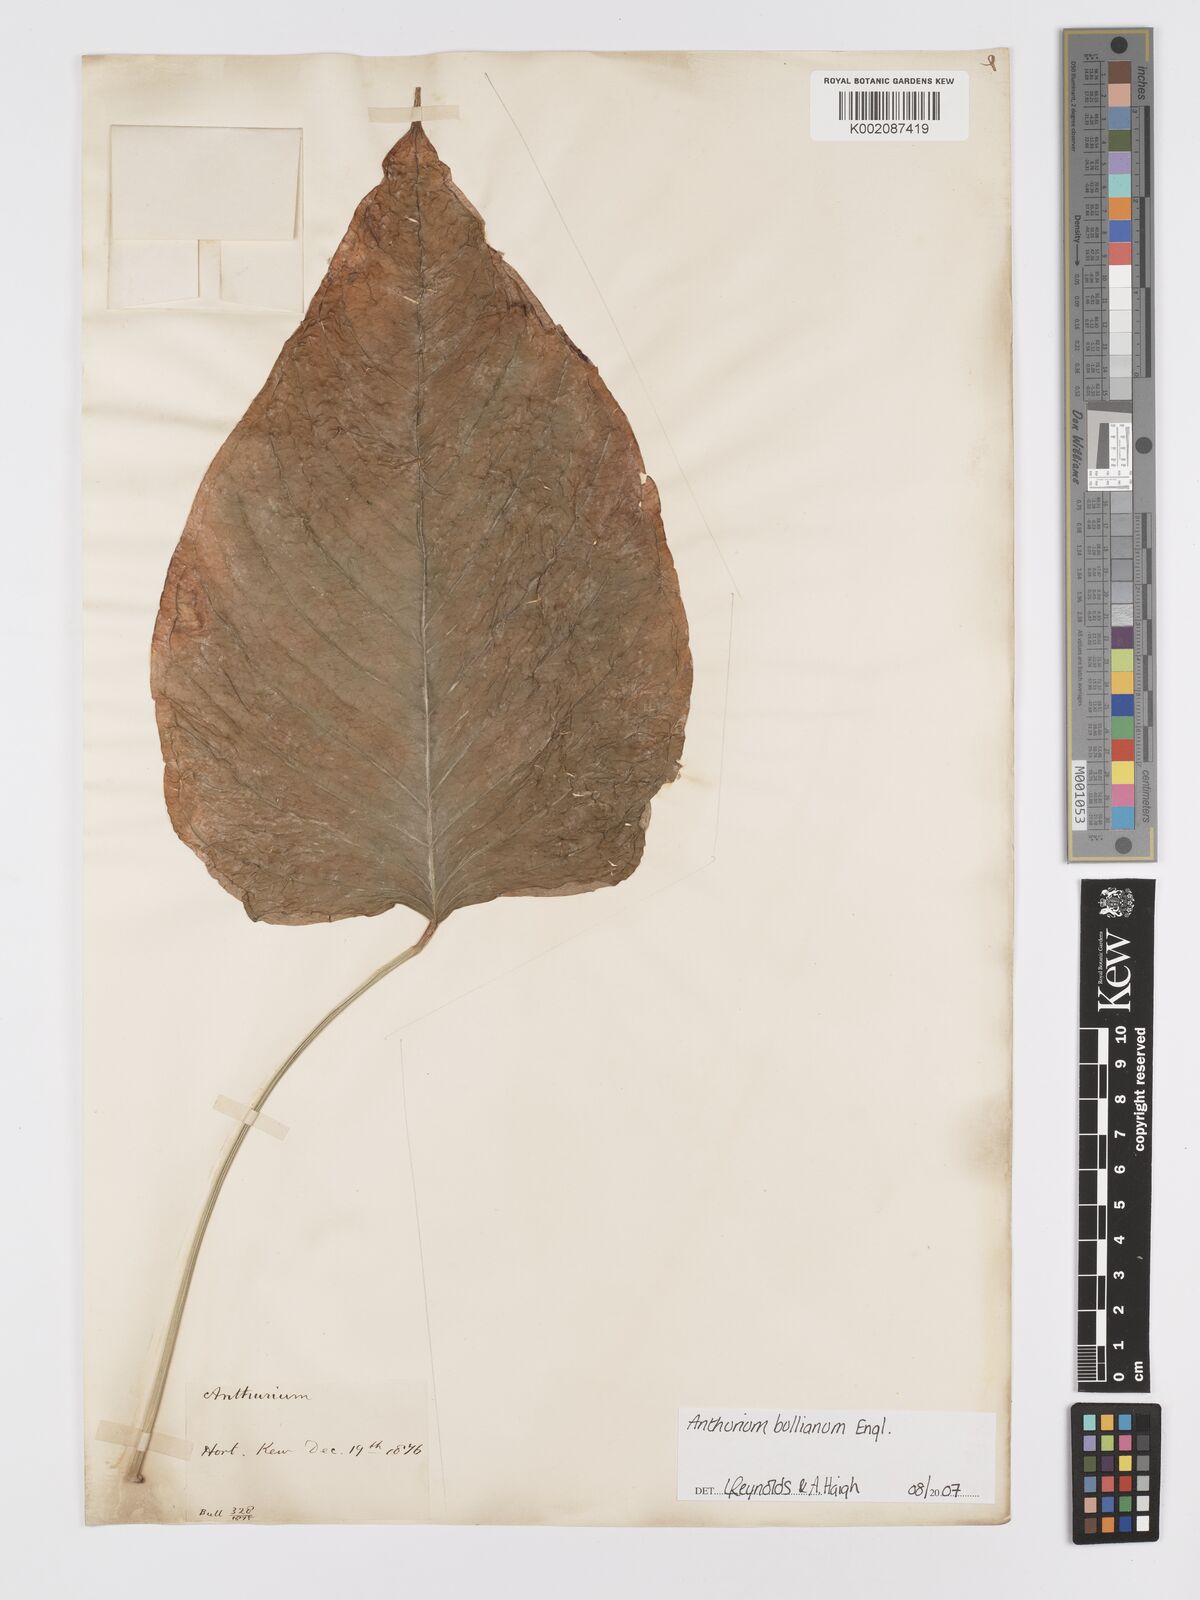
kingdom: Plantae
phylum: Tracheophyta
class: Liliopsida
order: Alismatales
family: Araceae
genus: Anthurium
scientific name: Anthurium bullianum
